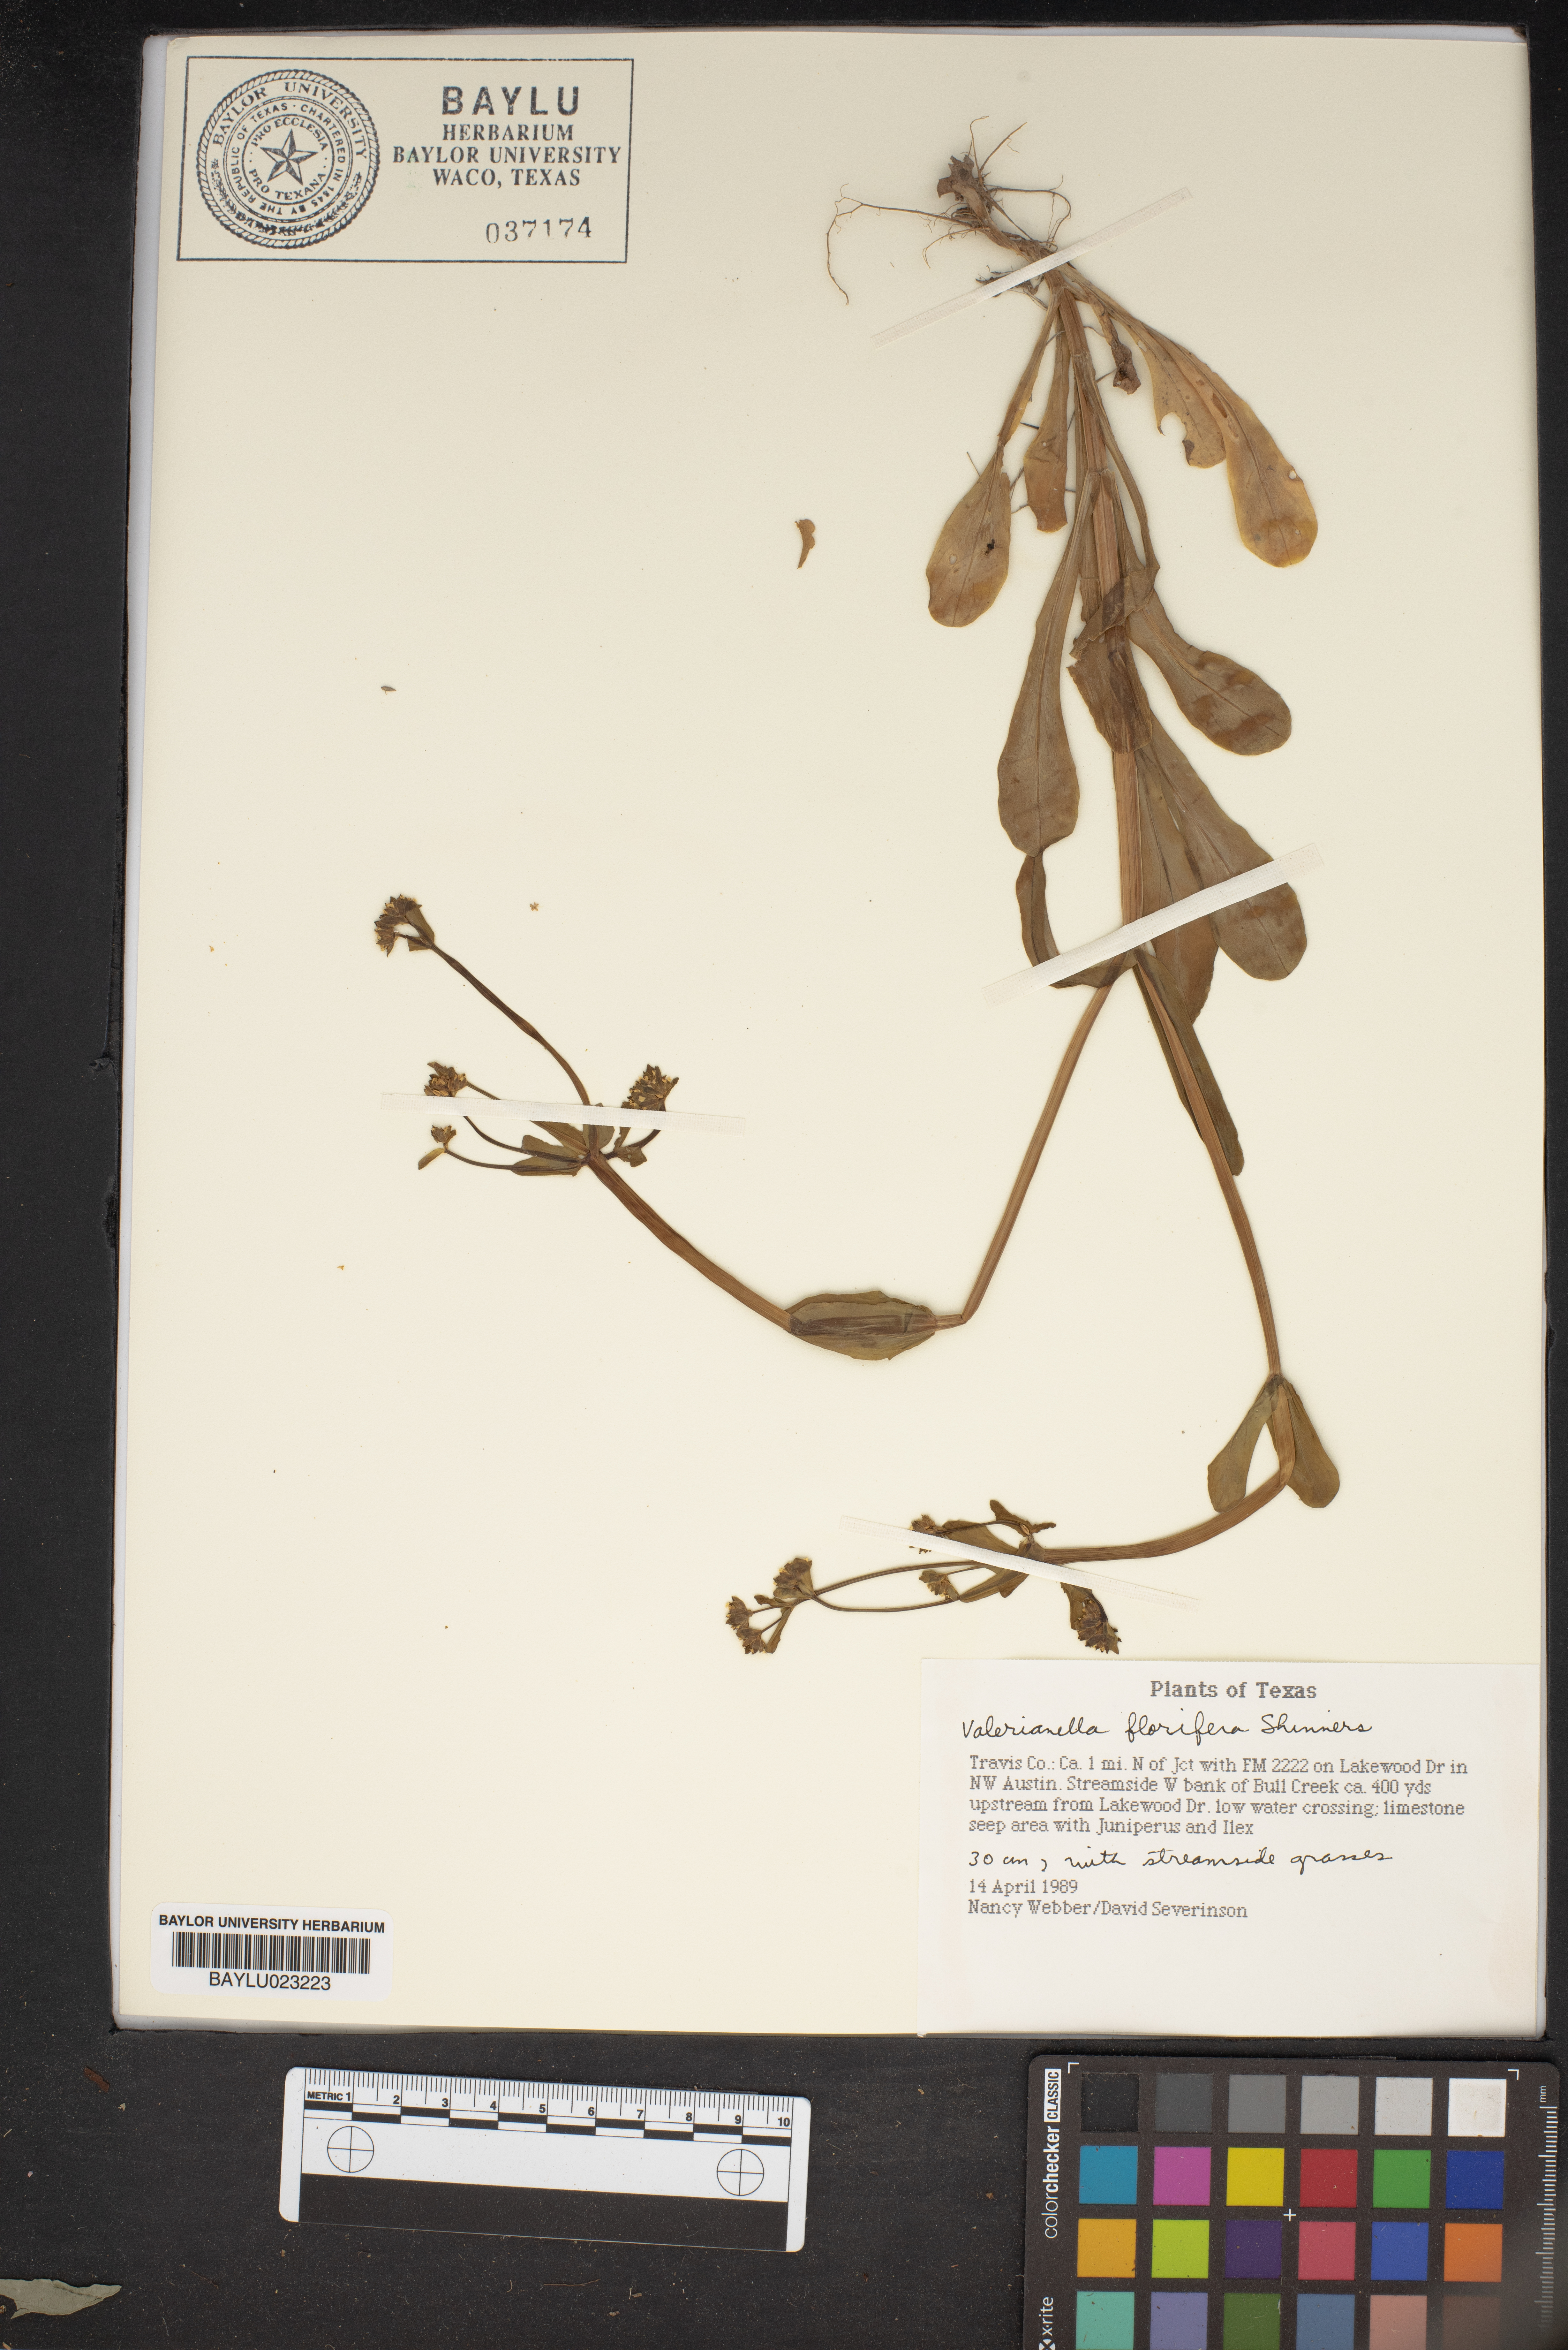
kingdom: Plantae
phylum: Tracheophyta
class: Magnoliopsida
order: Dipsacales
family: Caprifoliaceae
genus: Valerianella
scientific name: Valerianella florifera
